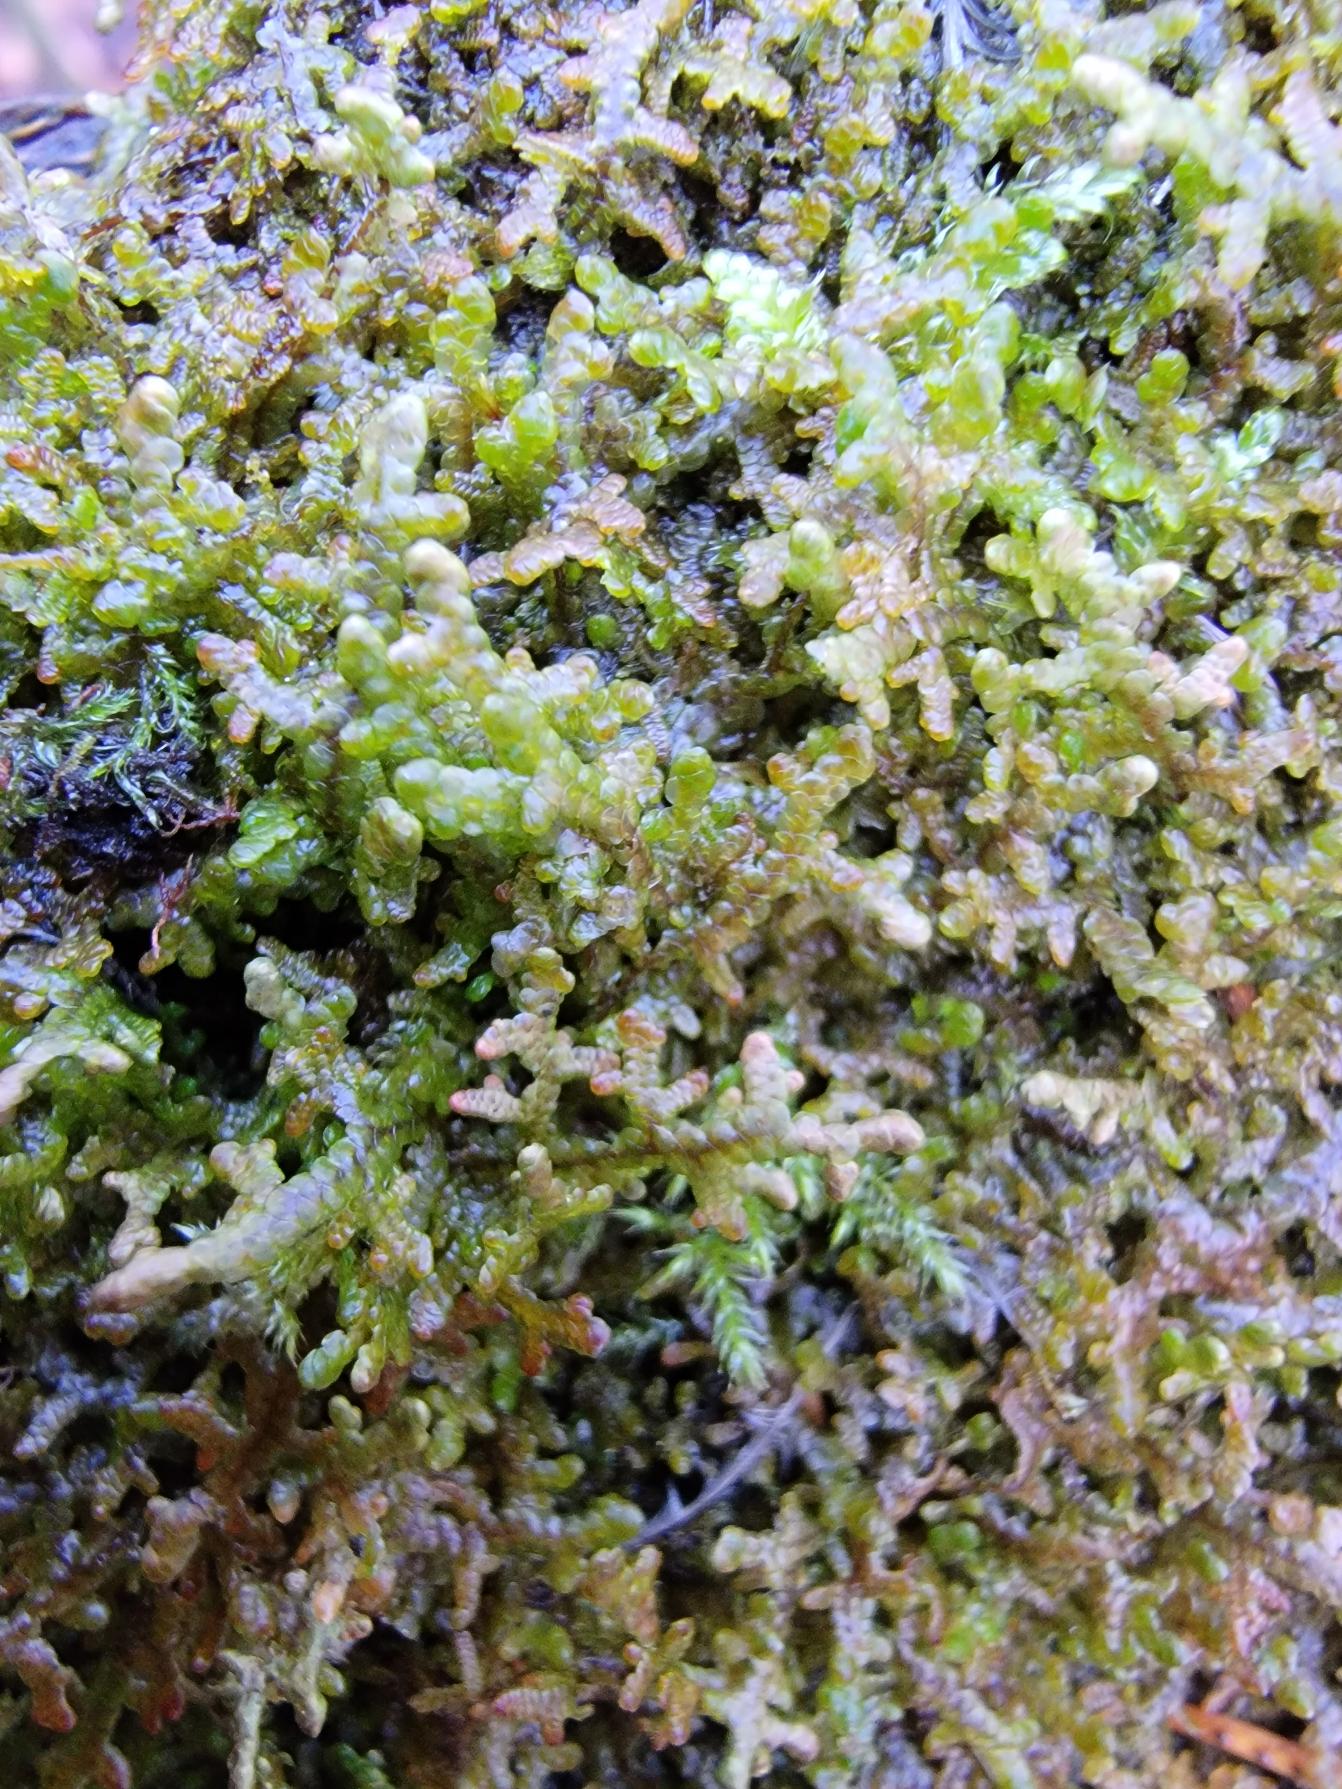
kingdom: Plantae
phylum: Marchantiophyta
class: Jungermanniopsida
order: Porellales
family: Frullaniaceae
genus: Frullania
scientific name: Frullania tamarisci
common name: Glinsende bronzemos
